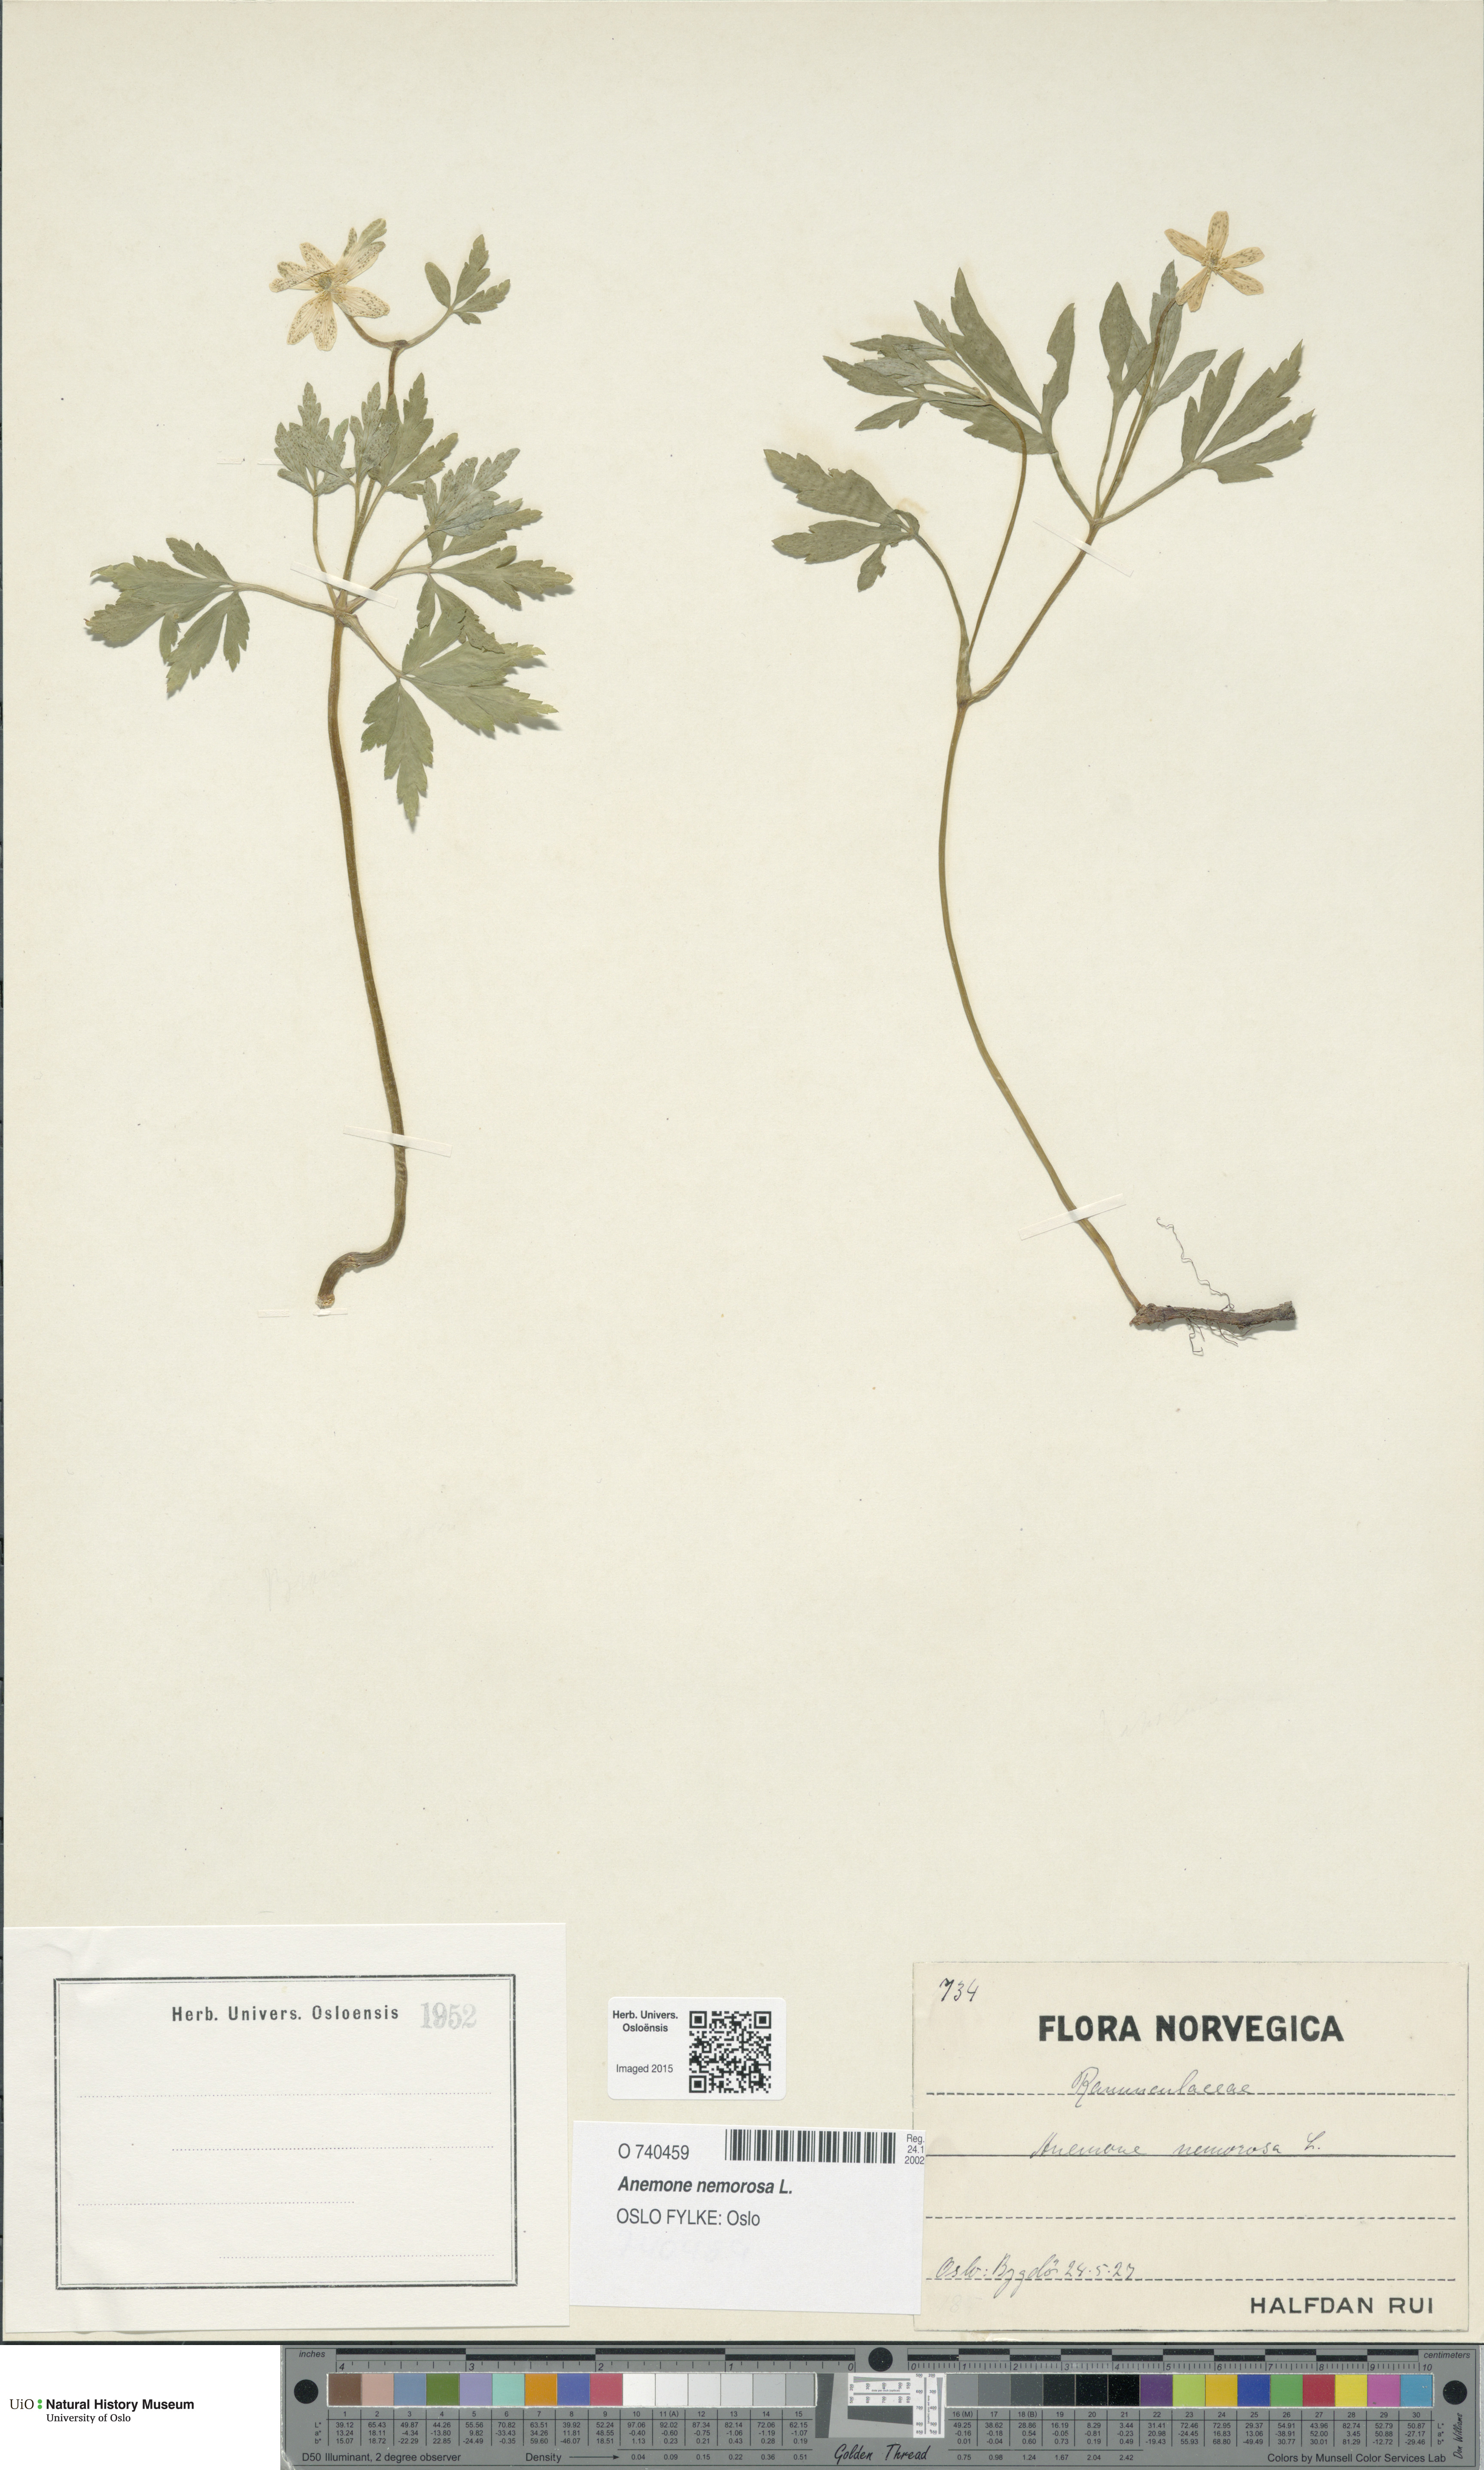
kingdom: Plantae
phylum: Tracheophyta
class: Magnoliopsida
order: Ranunculales
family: Ranunculaceae
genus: Anemone
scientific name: Anemone nemorosa
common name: Wood anemone
